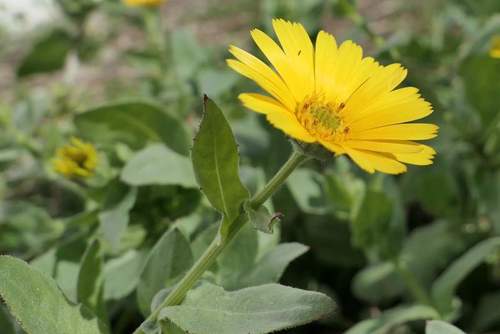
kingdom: Plantae
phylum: Tracheophyta
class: Magnoliopsida
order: Asterales
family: Asteraceae
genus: Calendula
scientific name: Calendula arvensis
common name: Field marigold
